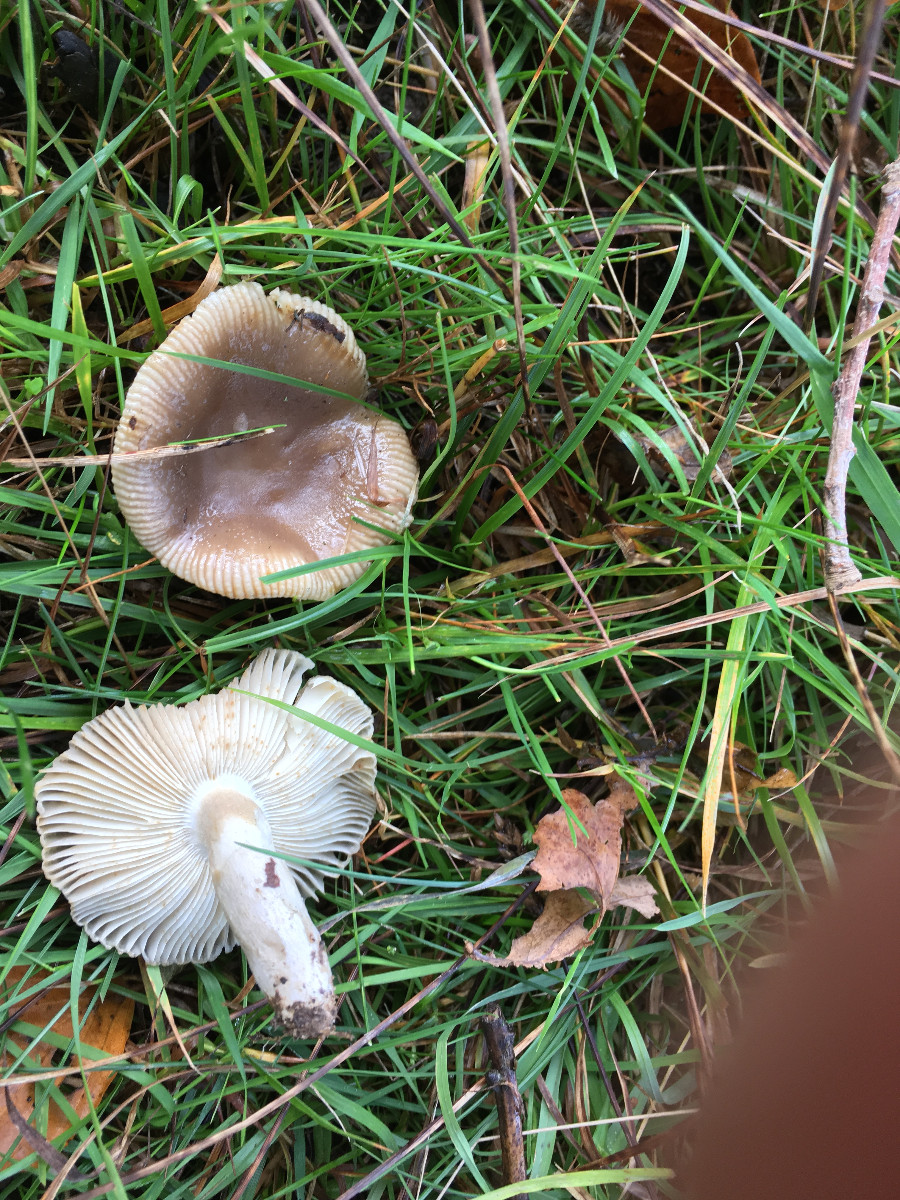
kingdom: Fungi
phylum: Basidiomycota
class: Agaricomycetes
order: Russulales
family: Russulaceae
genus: Russula
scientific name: Russula recondita
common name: mild kam-skørhat
